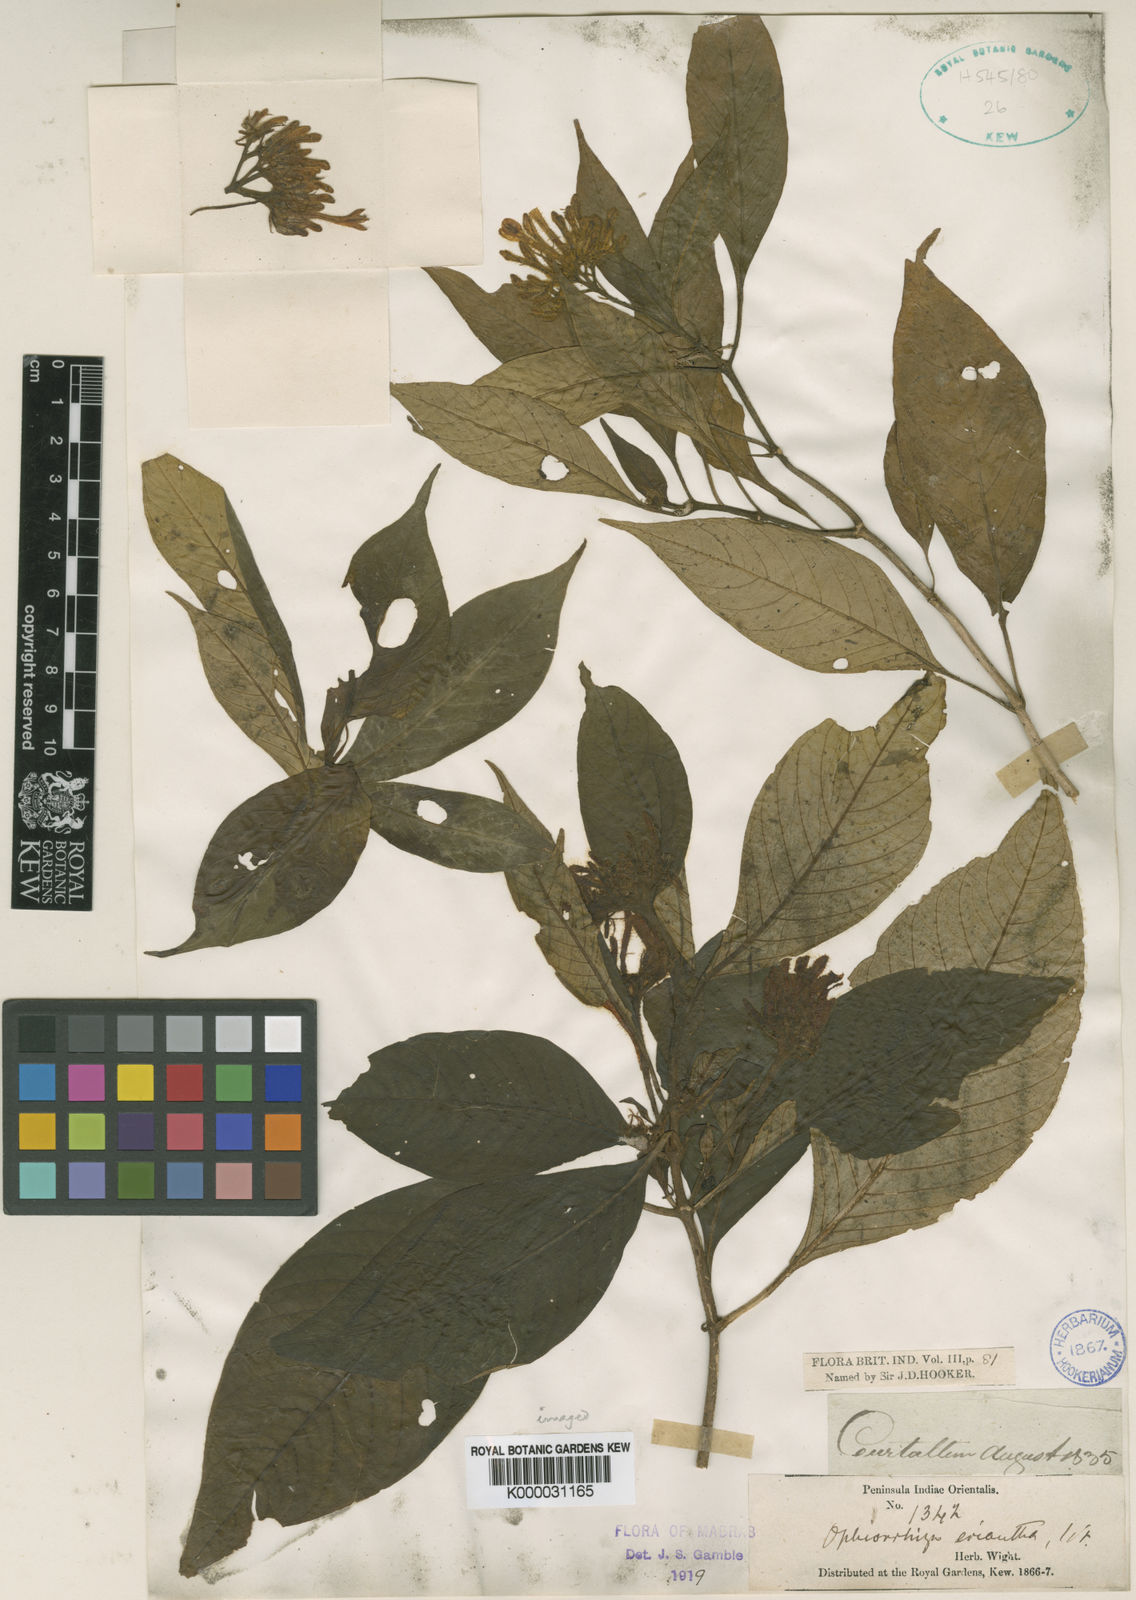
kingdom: Plantae
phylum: Tracheophyta
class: Magnoliopsida
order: Gentianales
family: Rubiaceae
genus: Ophiorrhiza
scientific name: Ophiorrhiza
